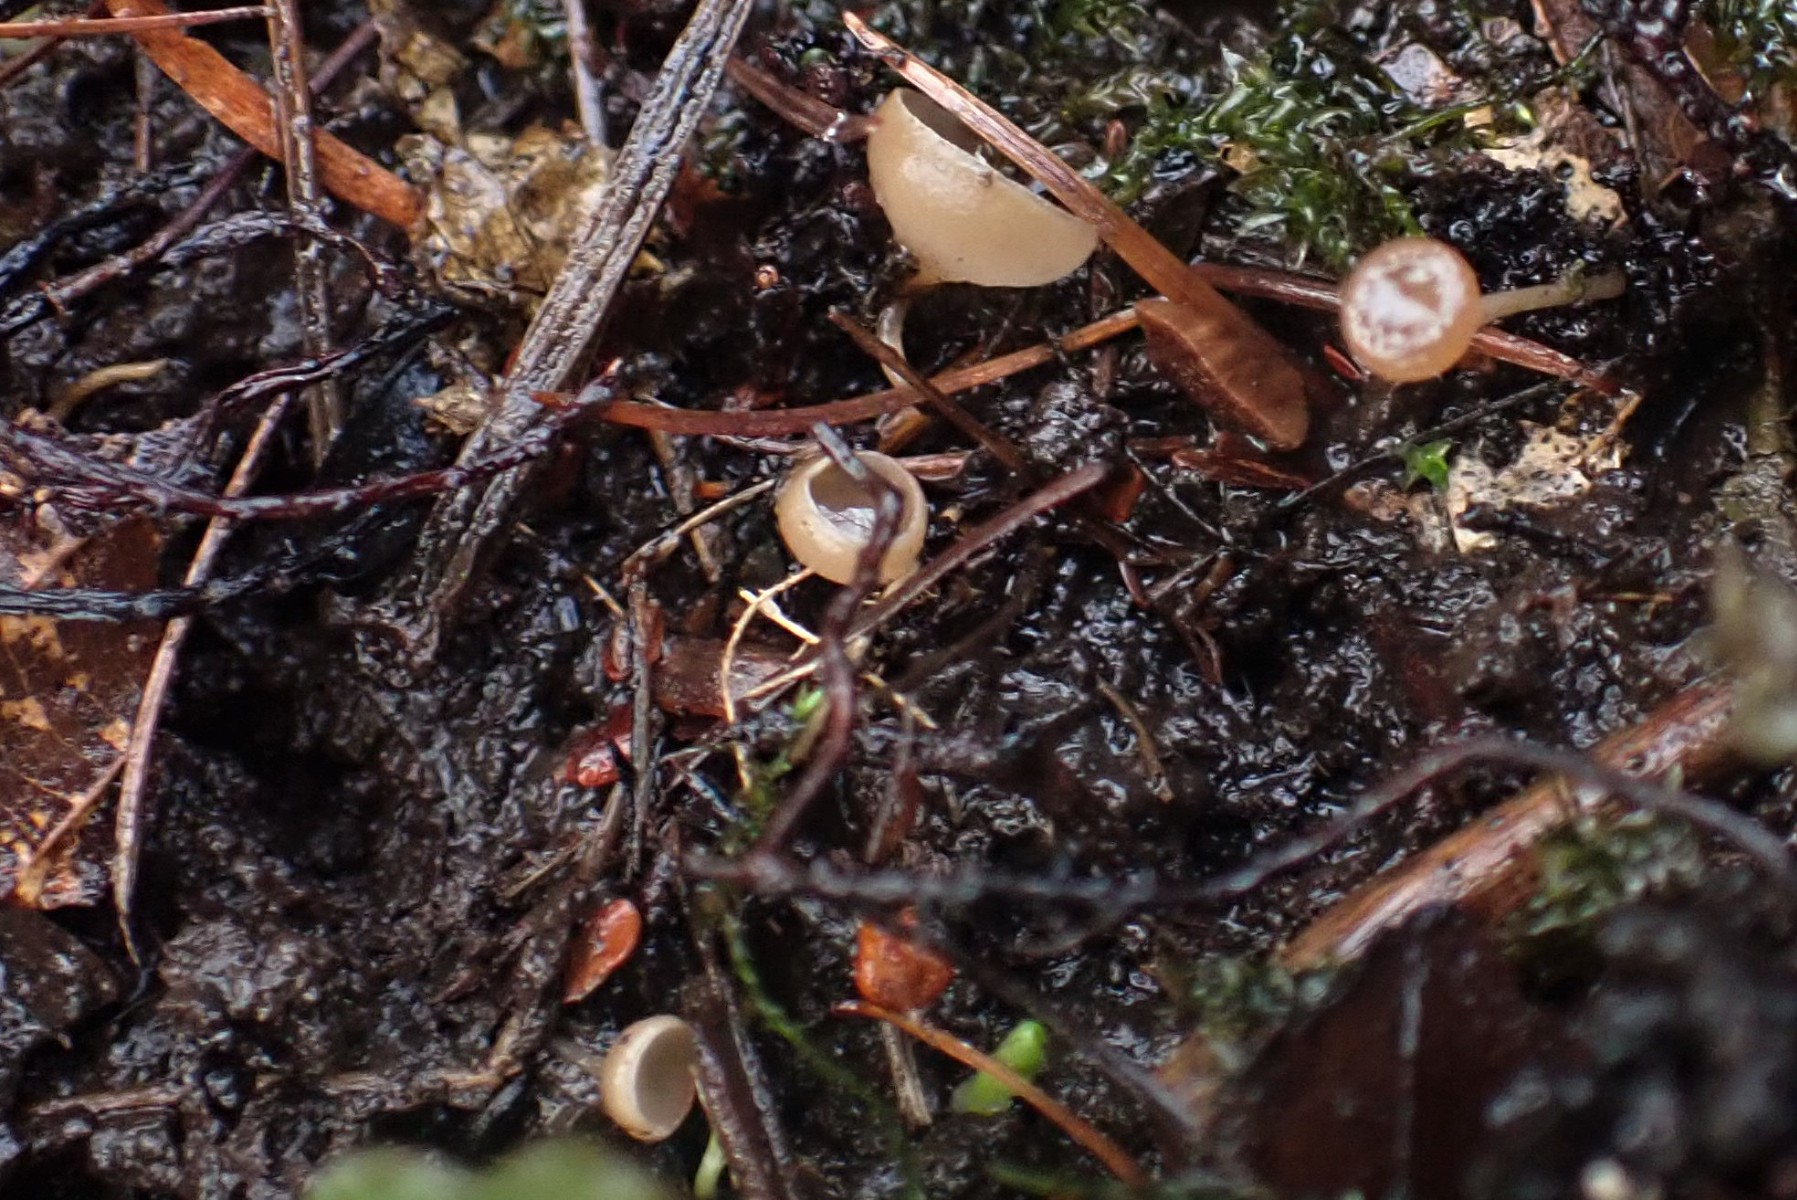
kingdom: Fungi
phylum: Ascomycota
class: Leotiomycetes
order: Helotiales
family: Sclerotiniaceae
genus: Ciboria
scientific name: Ciboria amentacea
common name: ellerakle-knoldskive
